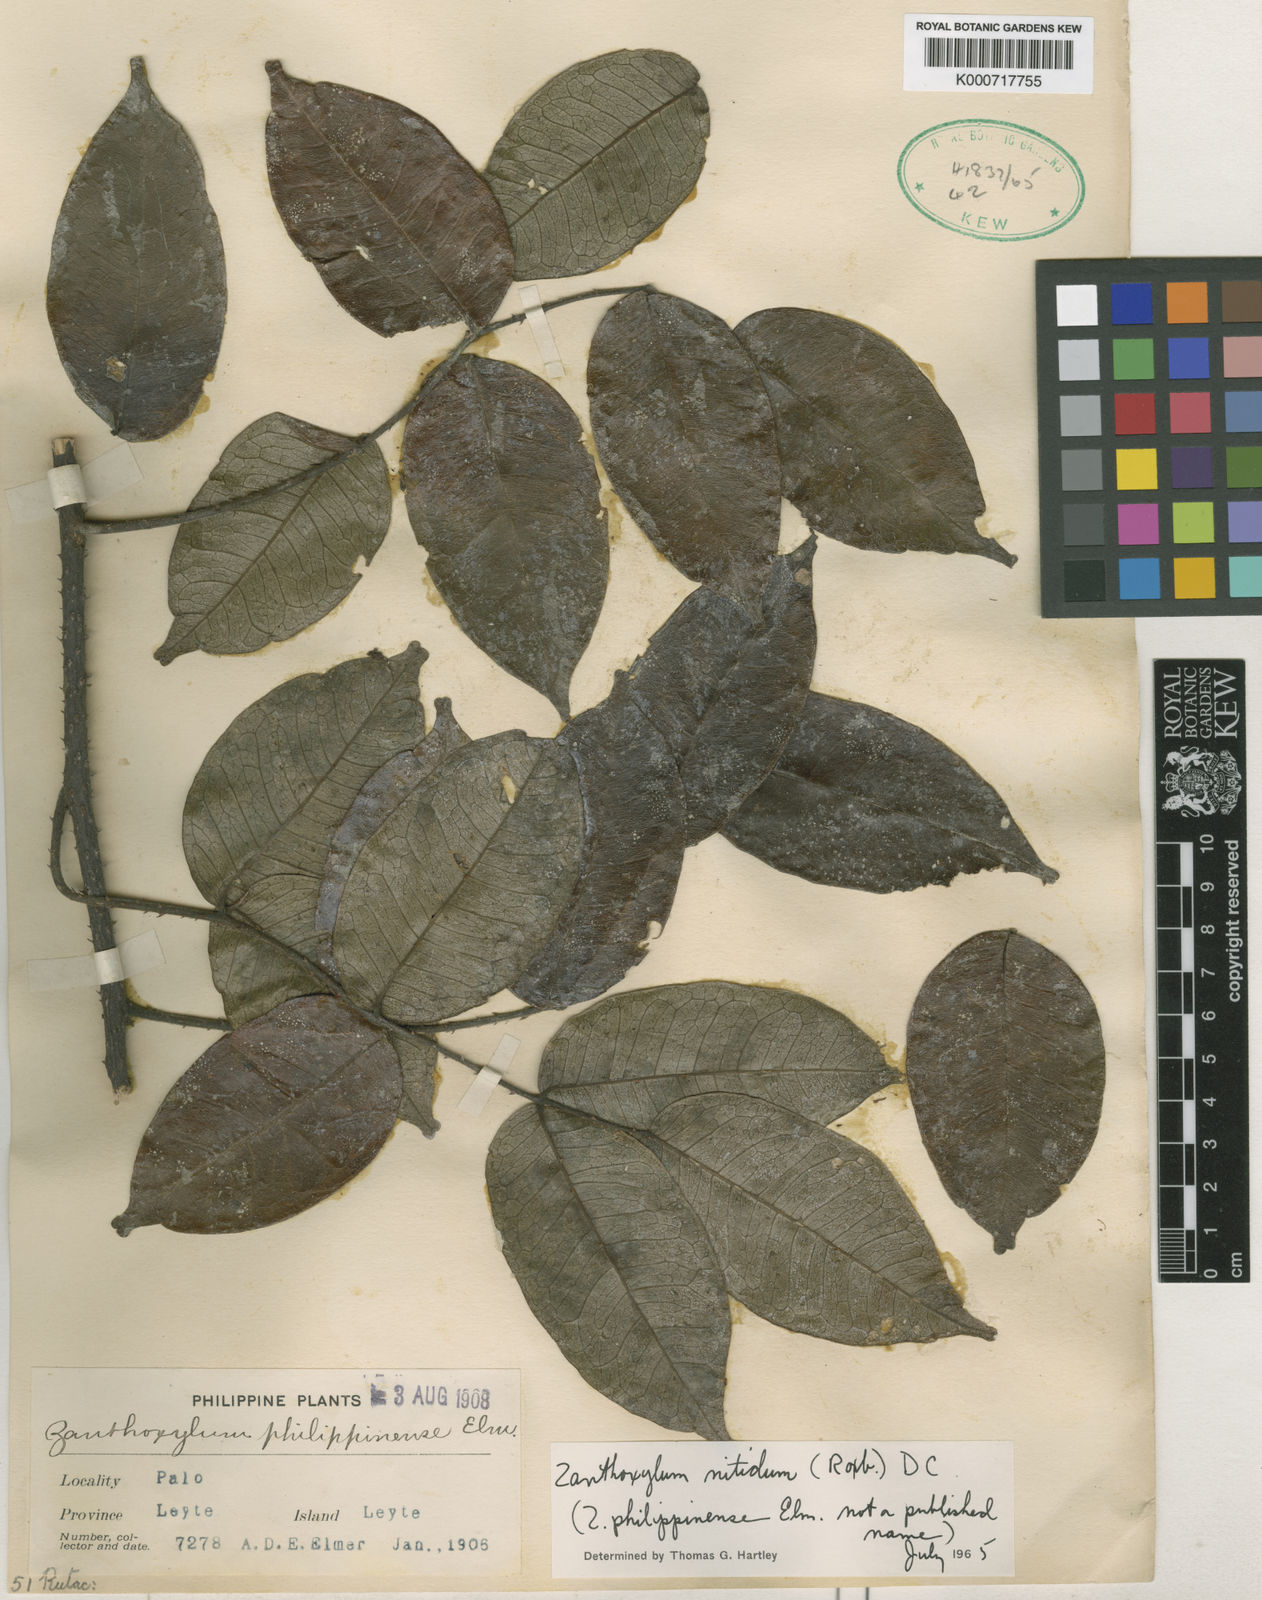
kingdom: Plantae
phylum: Tracheophyta
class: Magnoliopsida
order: Sapindales
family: Rutaceae
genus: Zanthoxylum
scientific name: Zanthoxylum nitidum
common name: Shiny-leaf prickly-ash
